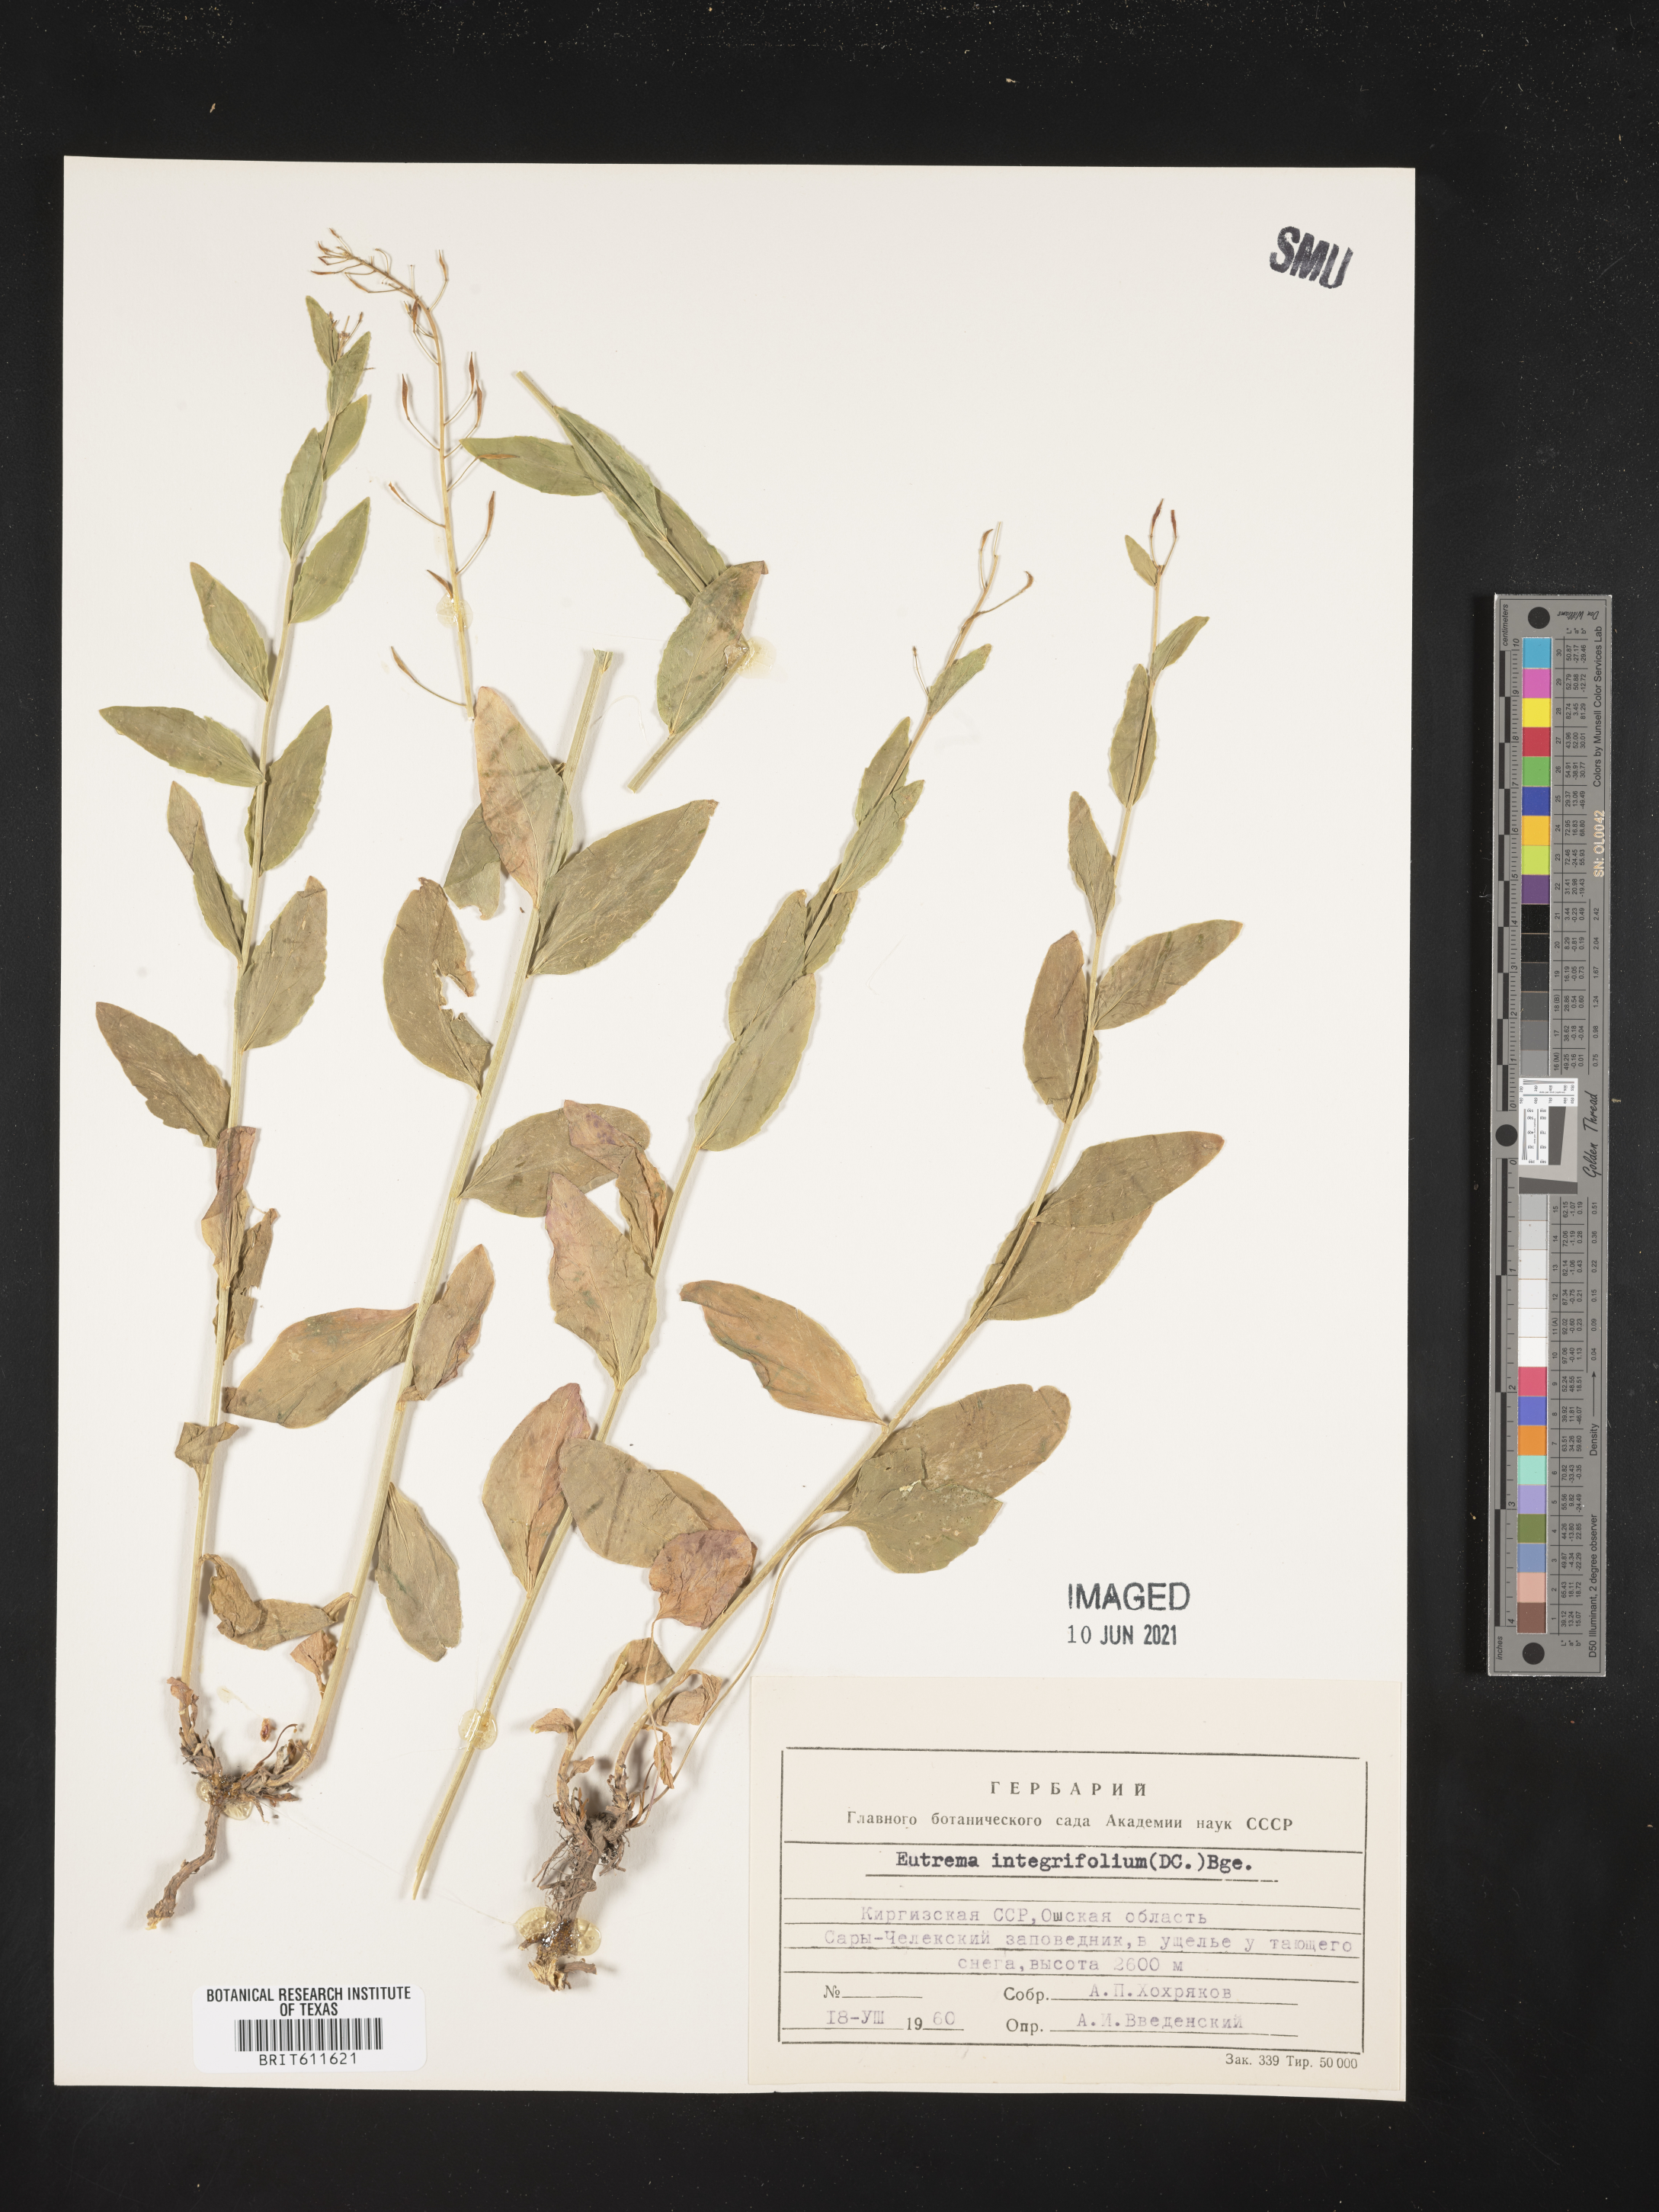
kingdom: Plantae
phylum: Tracheophyta
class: Magnoliopsida
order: Brassicales
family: Brassicaceae
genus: Eutrema
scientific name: Eutrema integrifolium
